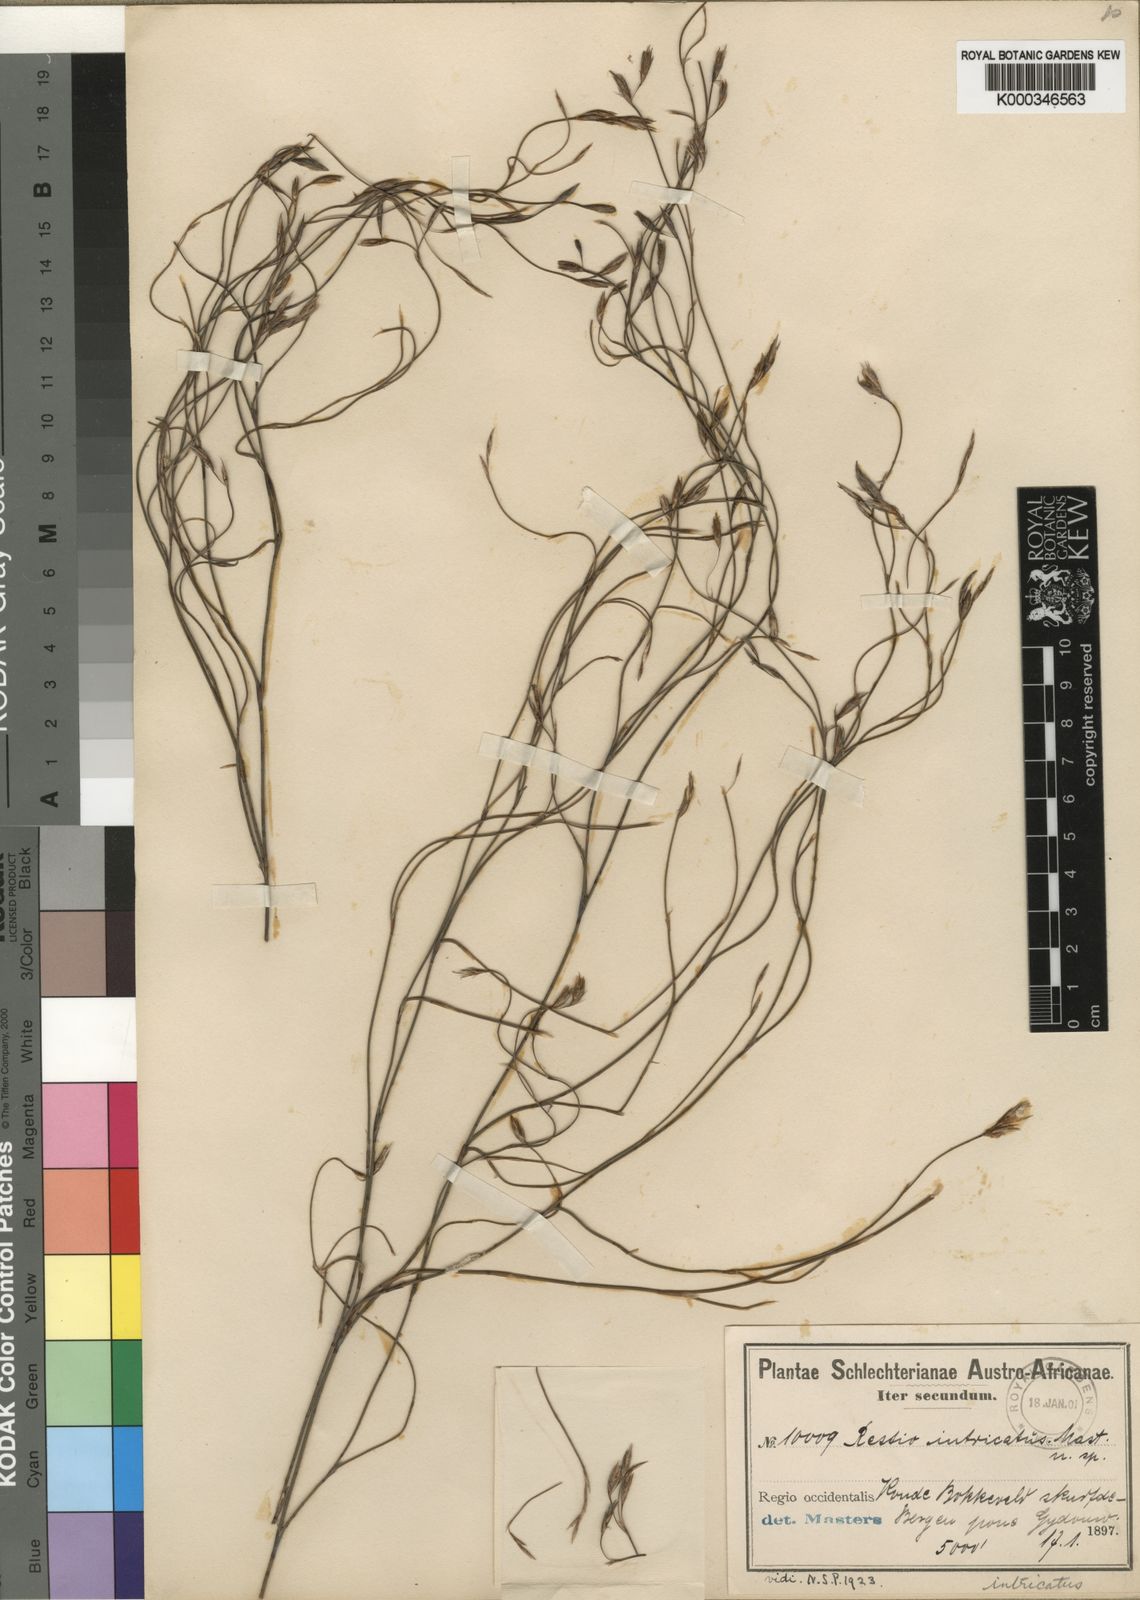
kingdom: Plantae
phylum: Tracheophyta
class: Liliopsida
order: Poales
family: Restionaceae
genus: Restio
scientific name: Restio patens
